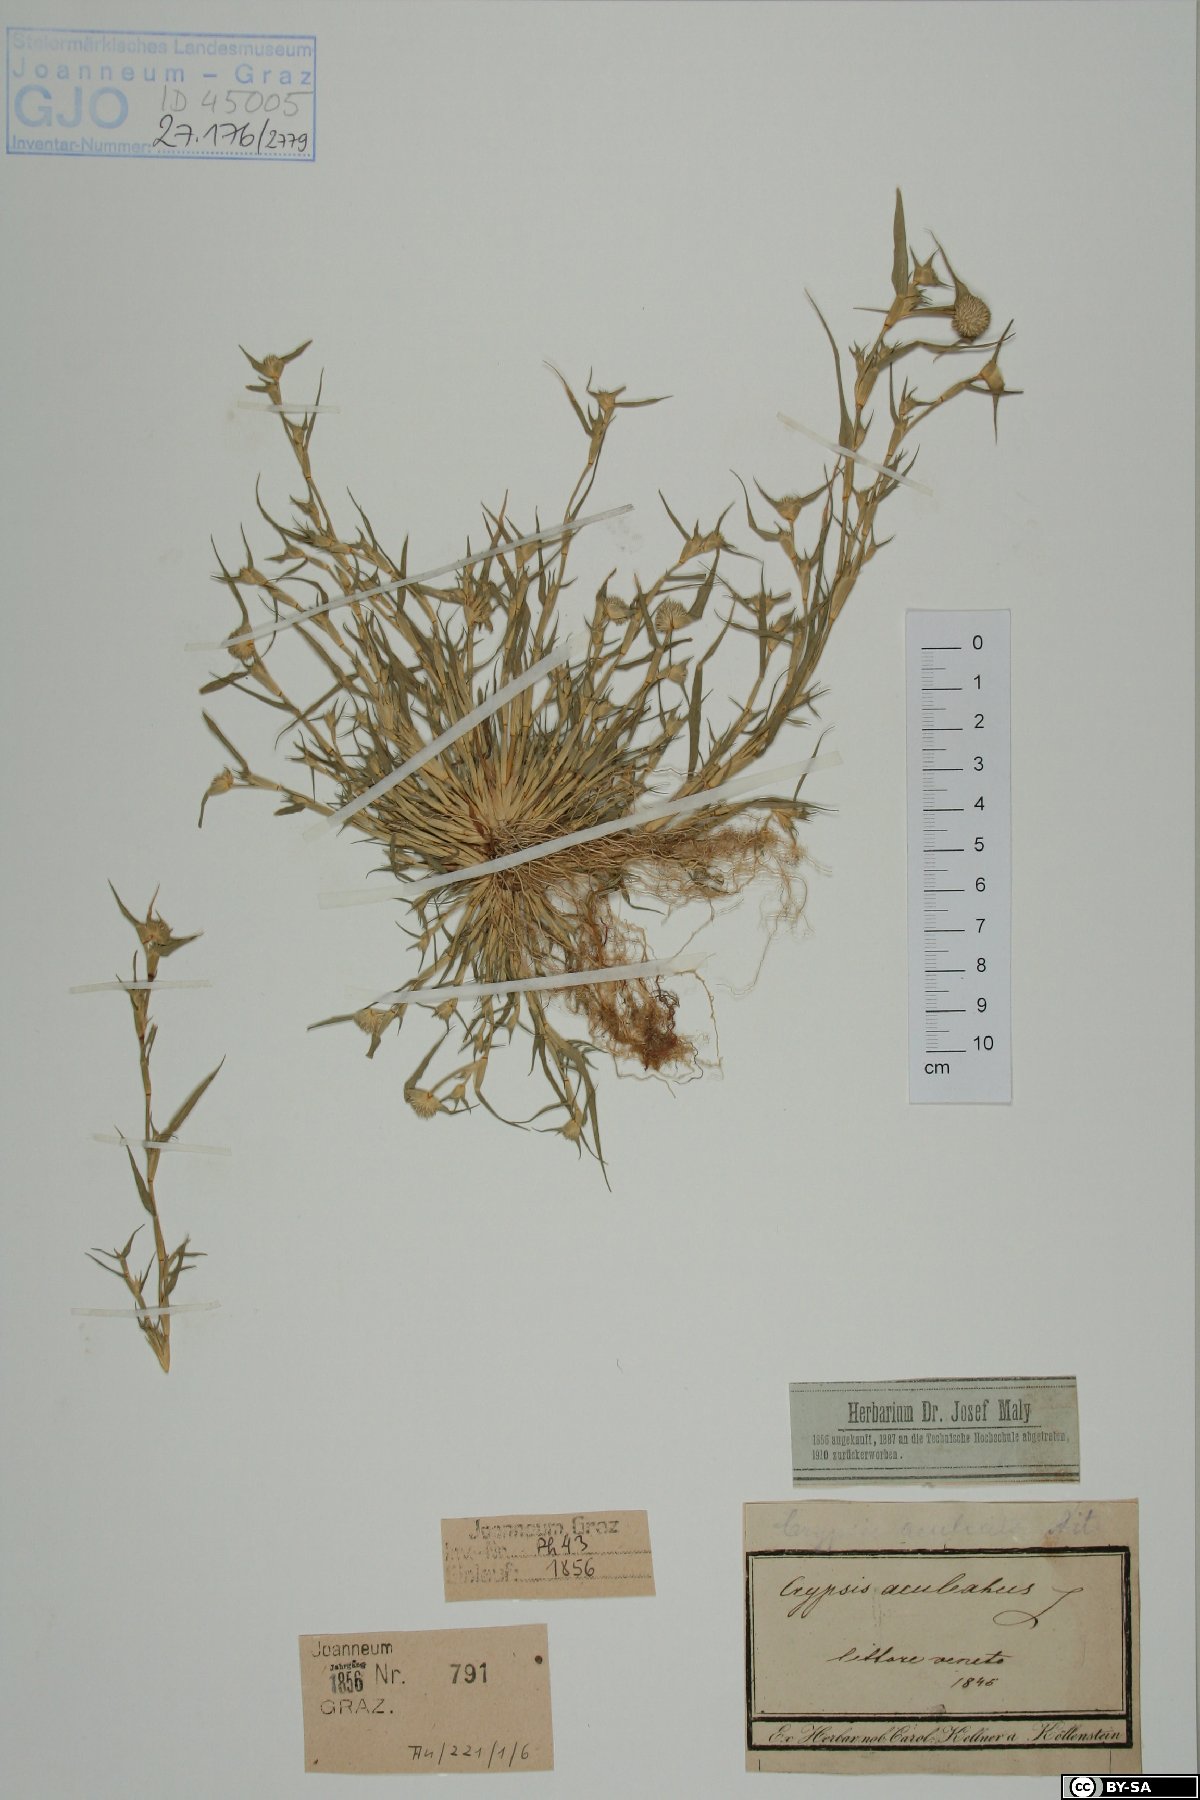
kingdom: Plantae
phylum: Tracheophyta
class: Liliopsida
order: Poales
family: Poaceae
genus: Sporobolus
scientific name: Sporobolus aculeatus
